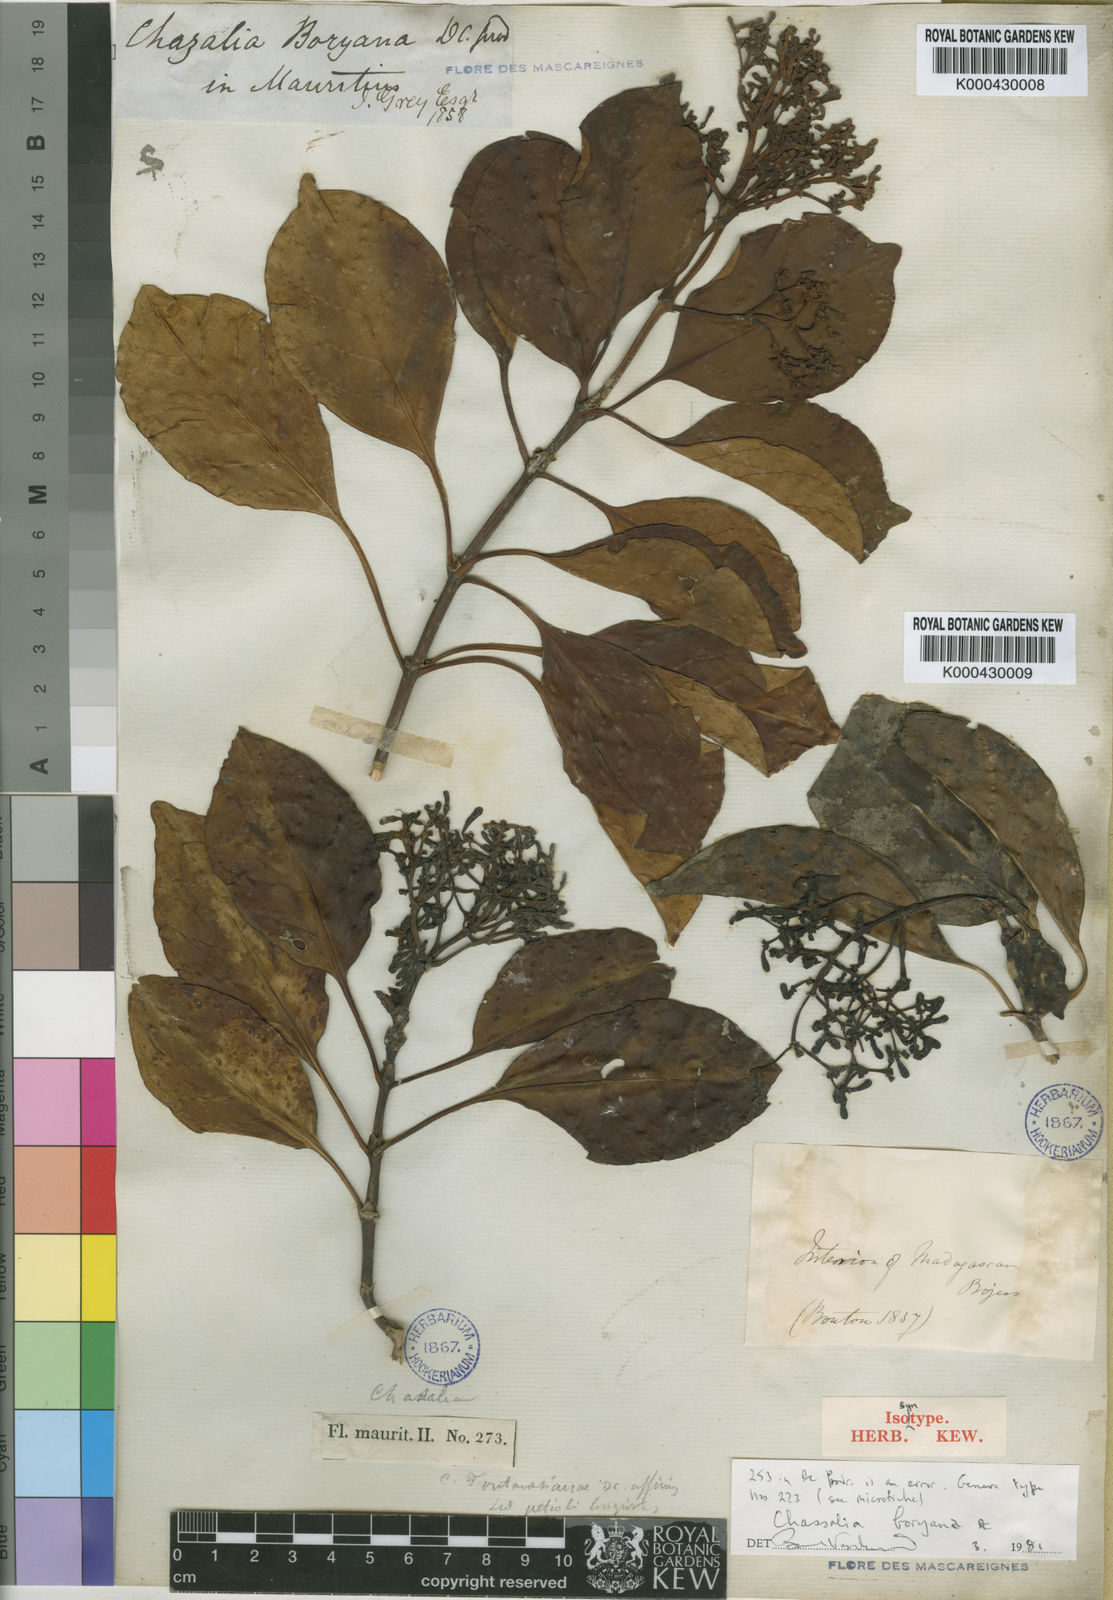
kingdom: Plantae
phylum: Tracheophyta
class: Magnoliopsida
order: Gentianales
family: Rubiaceae
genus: Chassalia
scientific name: Chassalia boryana
